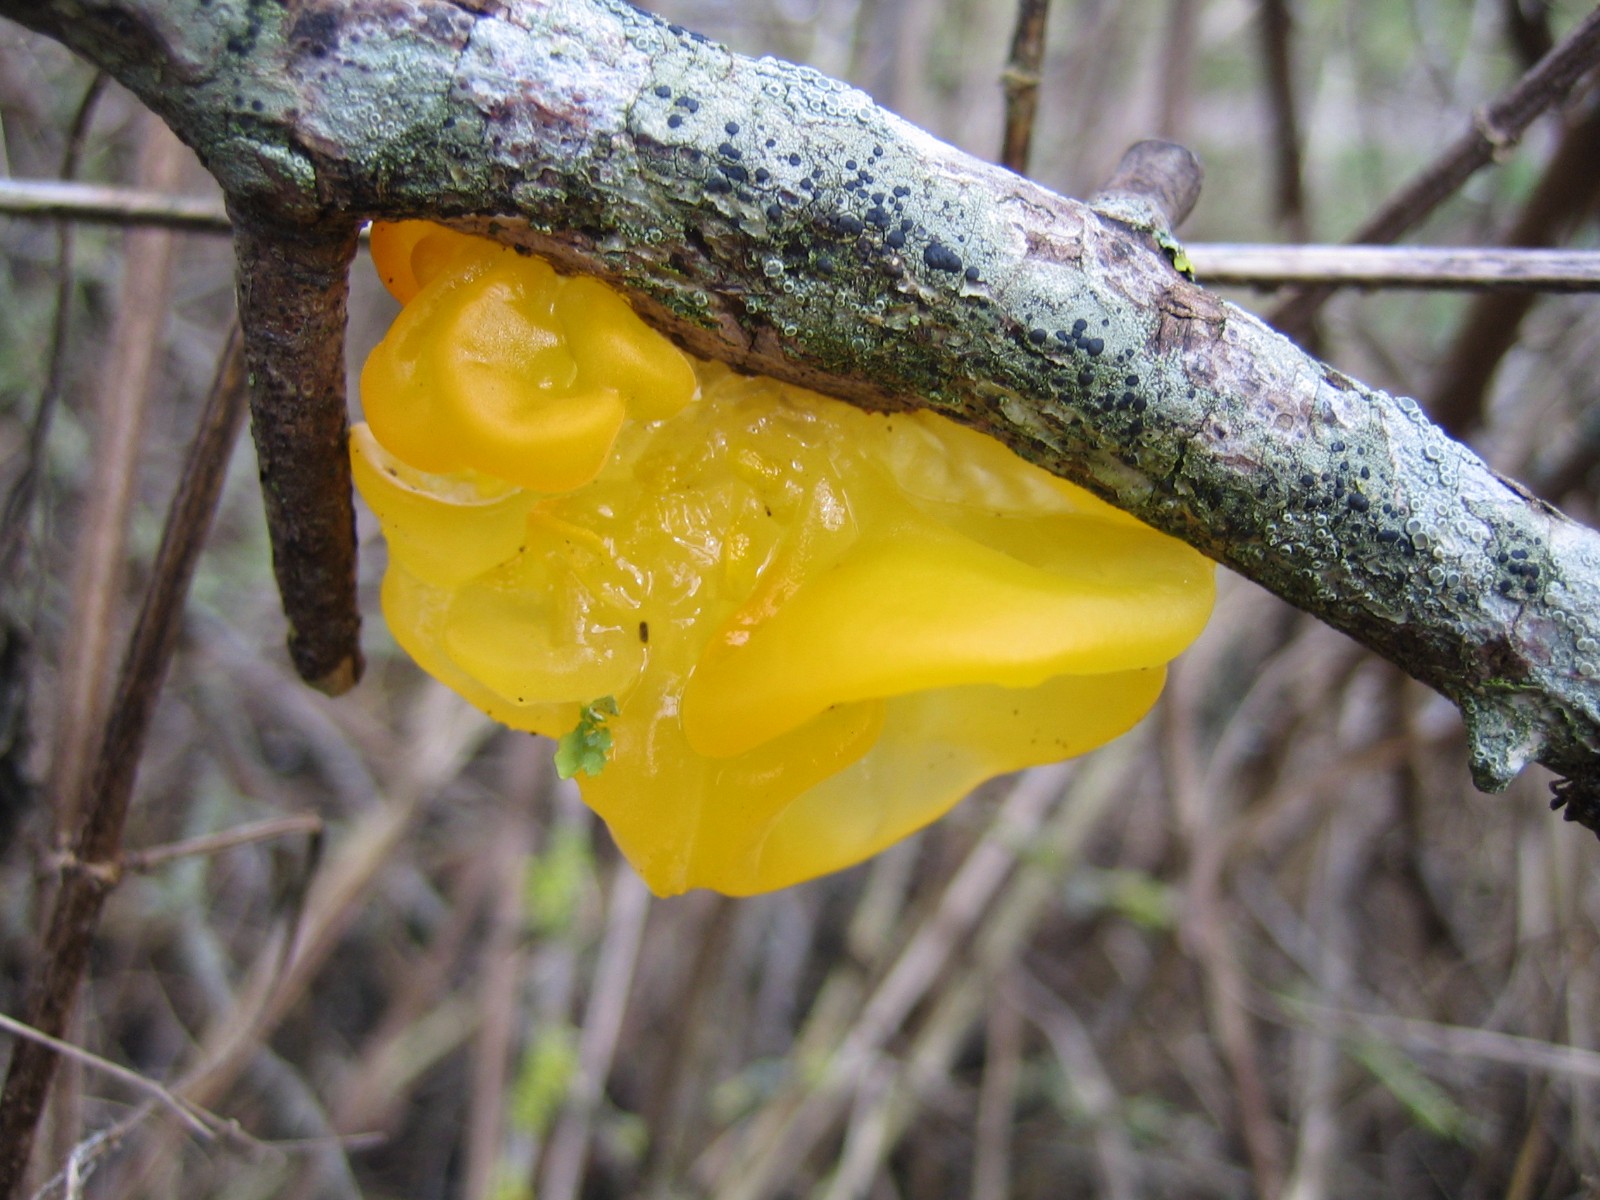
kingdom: Fungi
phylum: Basidiomycota
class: Tremellomycetes
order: Tremellales
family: Tremellaceae
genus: Tremella
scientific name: Tremella mesenterica
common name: gul bævresvamp
